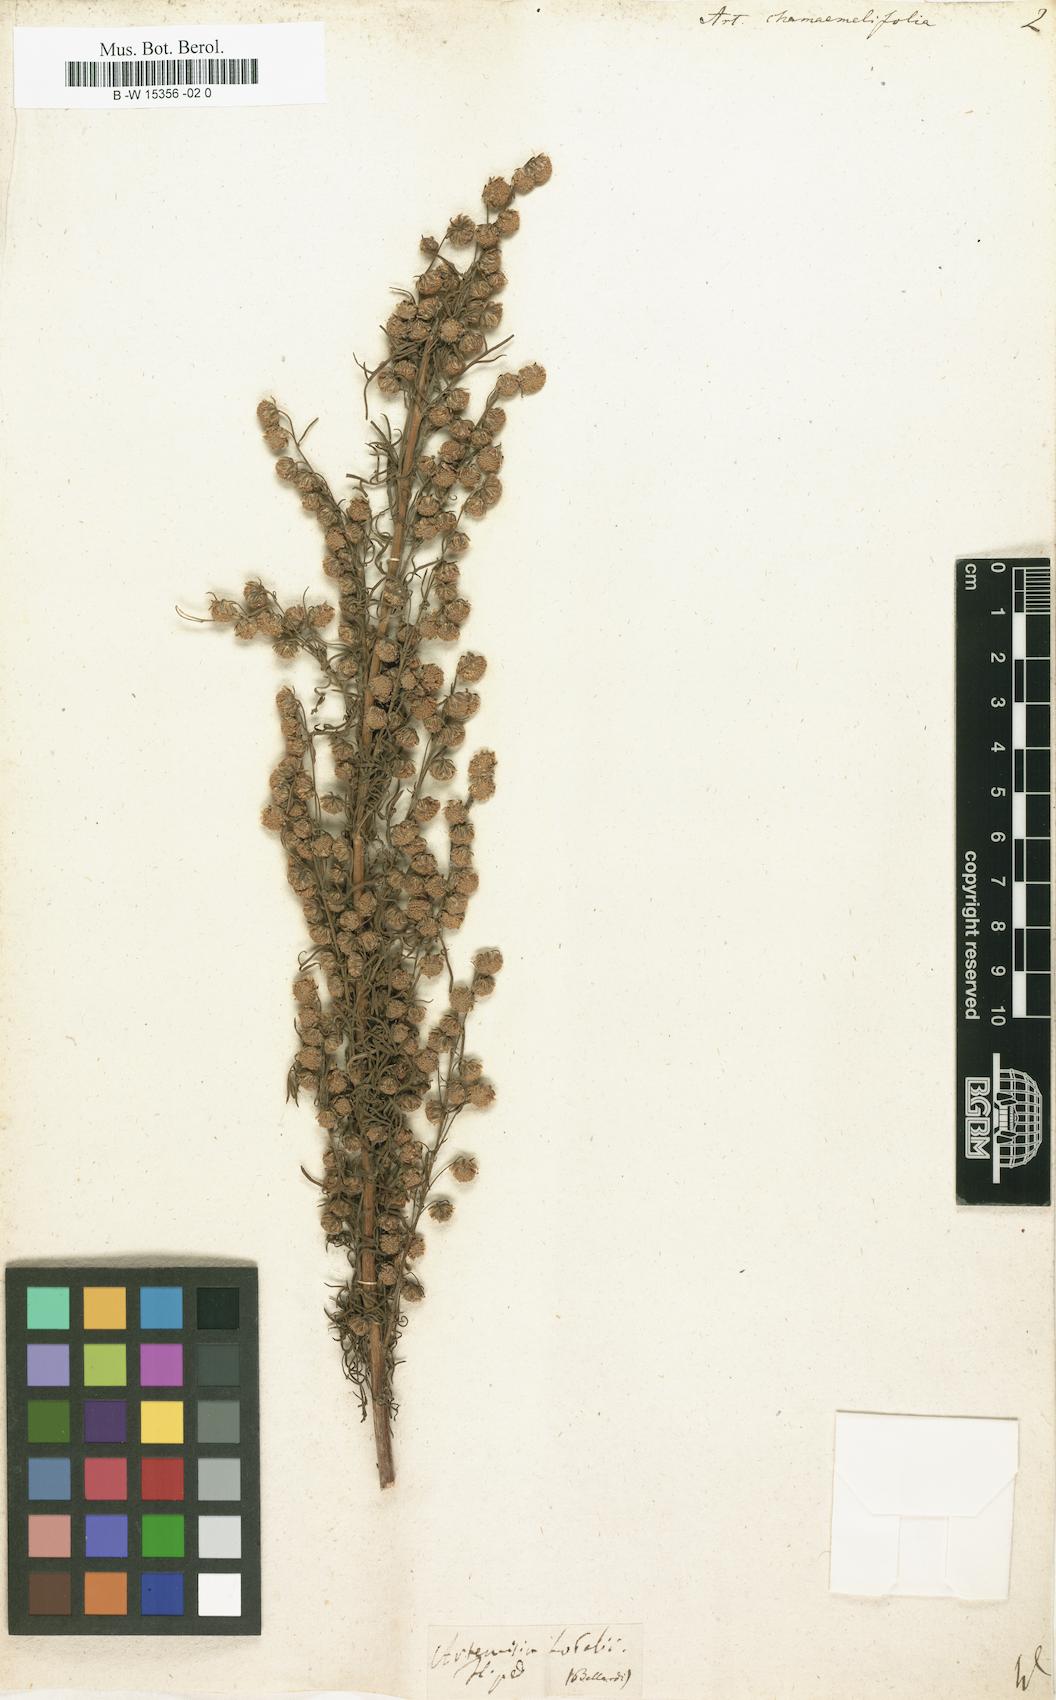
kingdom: Plantae
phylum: Tracheophyta
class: Magnoliopsida
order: Asterales
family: Asteraceae
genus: Artemisia
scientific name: Artemisia chamaemelifolia
